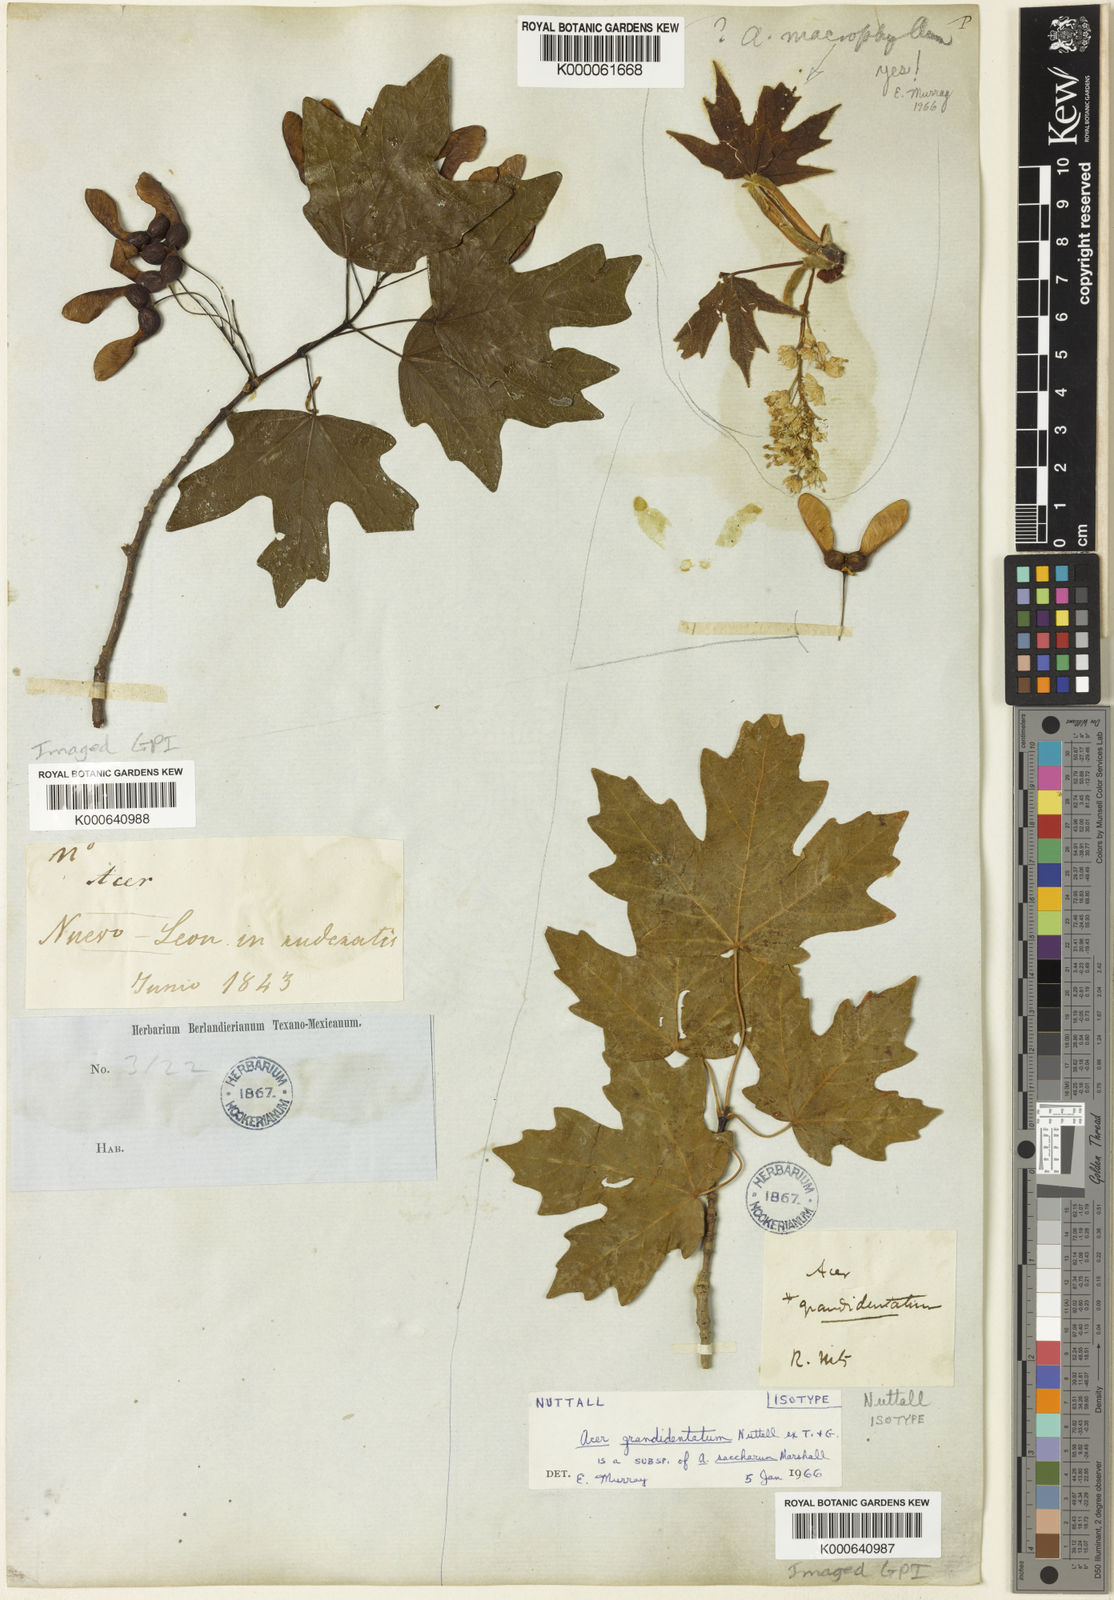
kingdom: Plantae
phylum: Tracheophyta
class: Magnoliopsida
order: Sapindales
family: Sapindaceae
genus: Acer
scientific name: Acer saccharum
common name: Sugar maple
